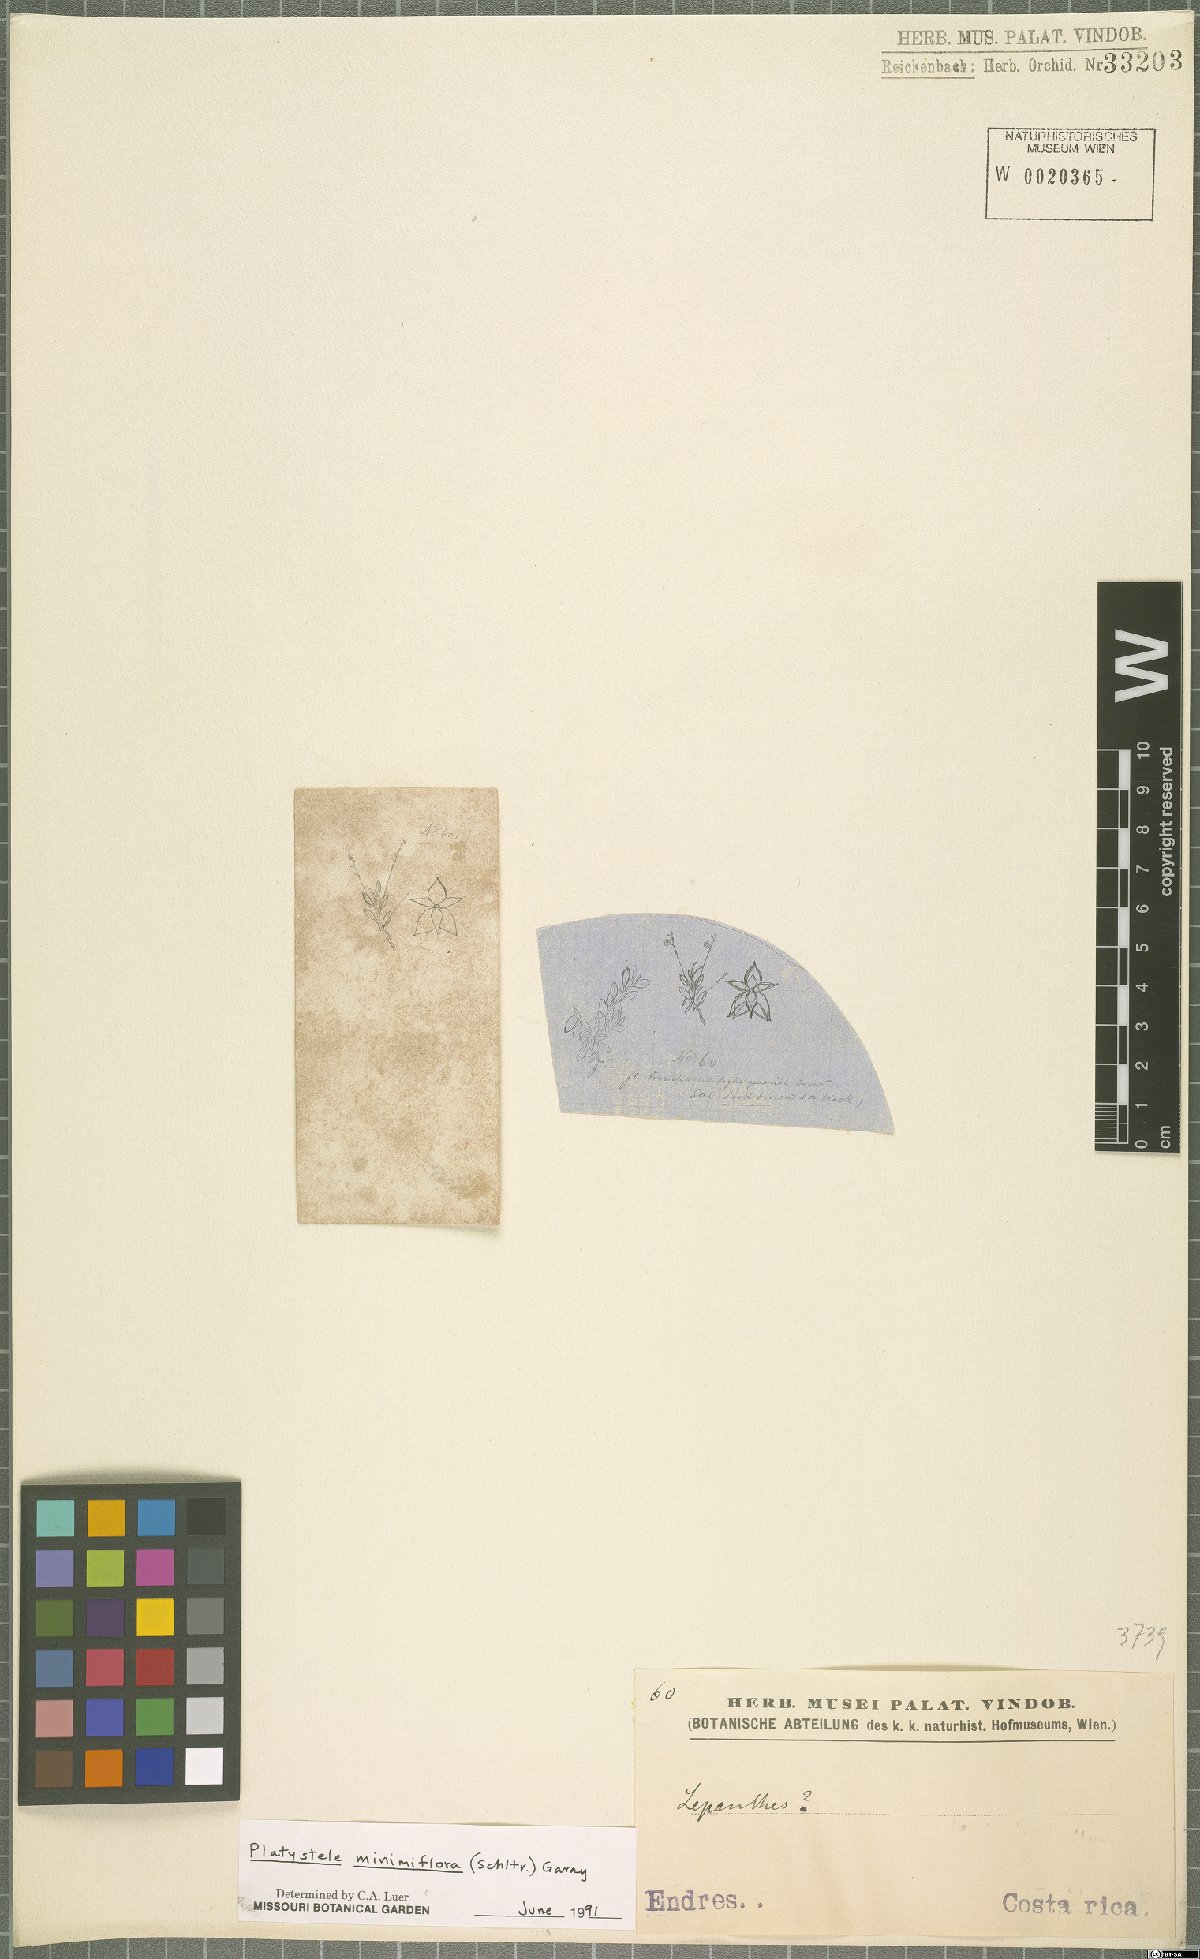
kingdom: Plantae
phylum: Tracheophyta
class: Liliopsida
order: Asparagales
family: Orchidaceae
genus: Platystele
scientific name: Platystele minimiflora
